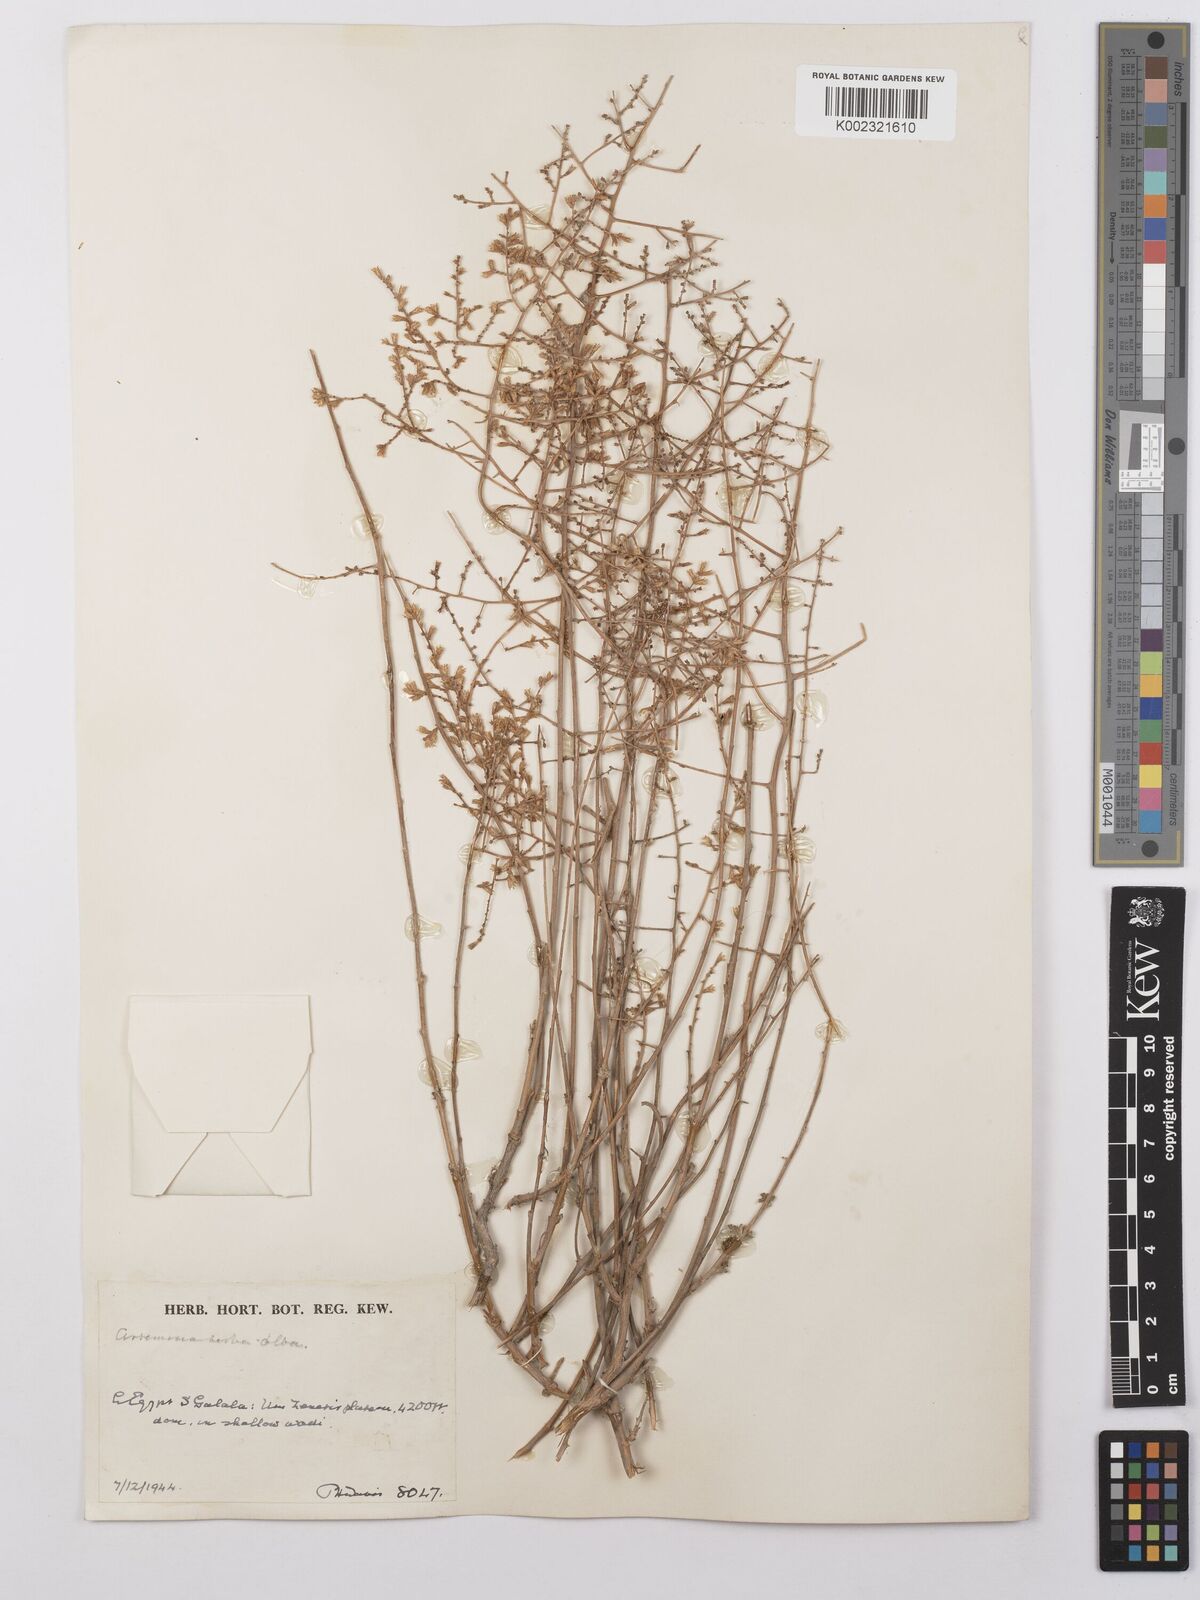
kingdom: Plantae
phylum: Tracheophyta
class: Magnoliopsida
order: Asterales
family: Asteraceae
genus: Artemisia
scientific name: Artemisia herba-alba
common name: White wormwood
